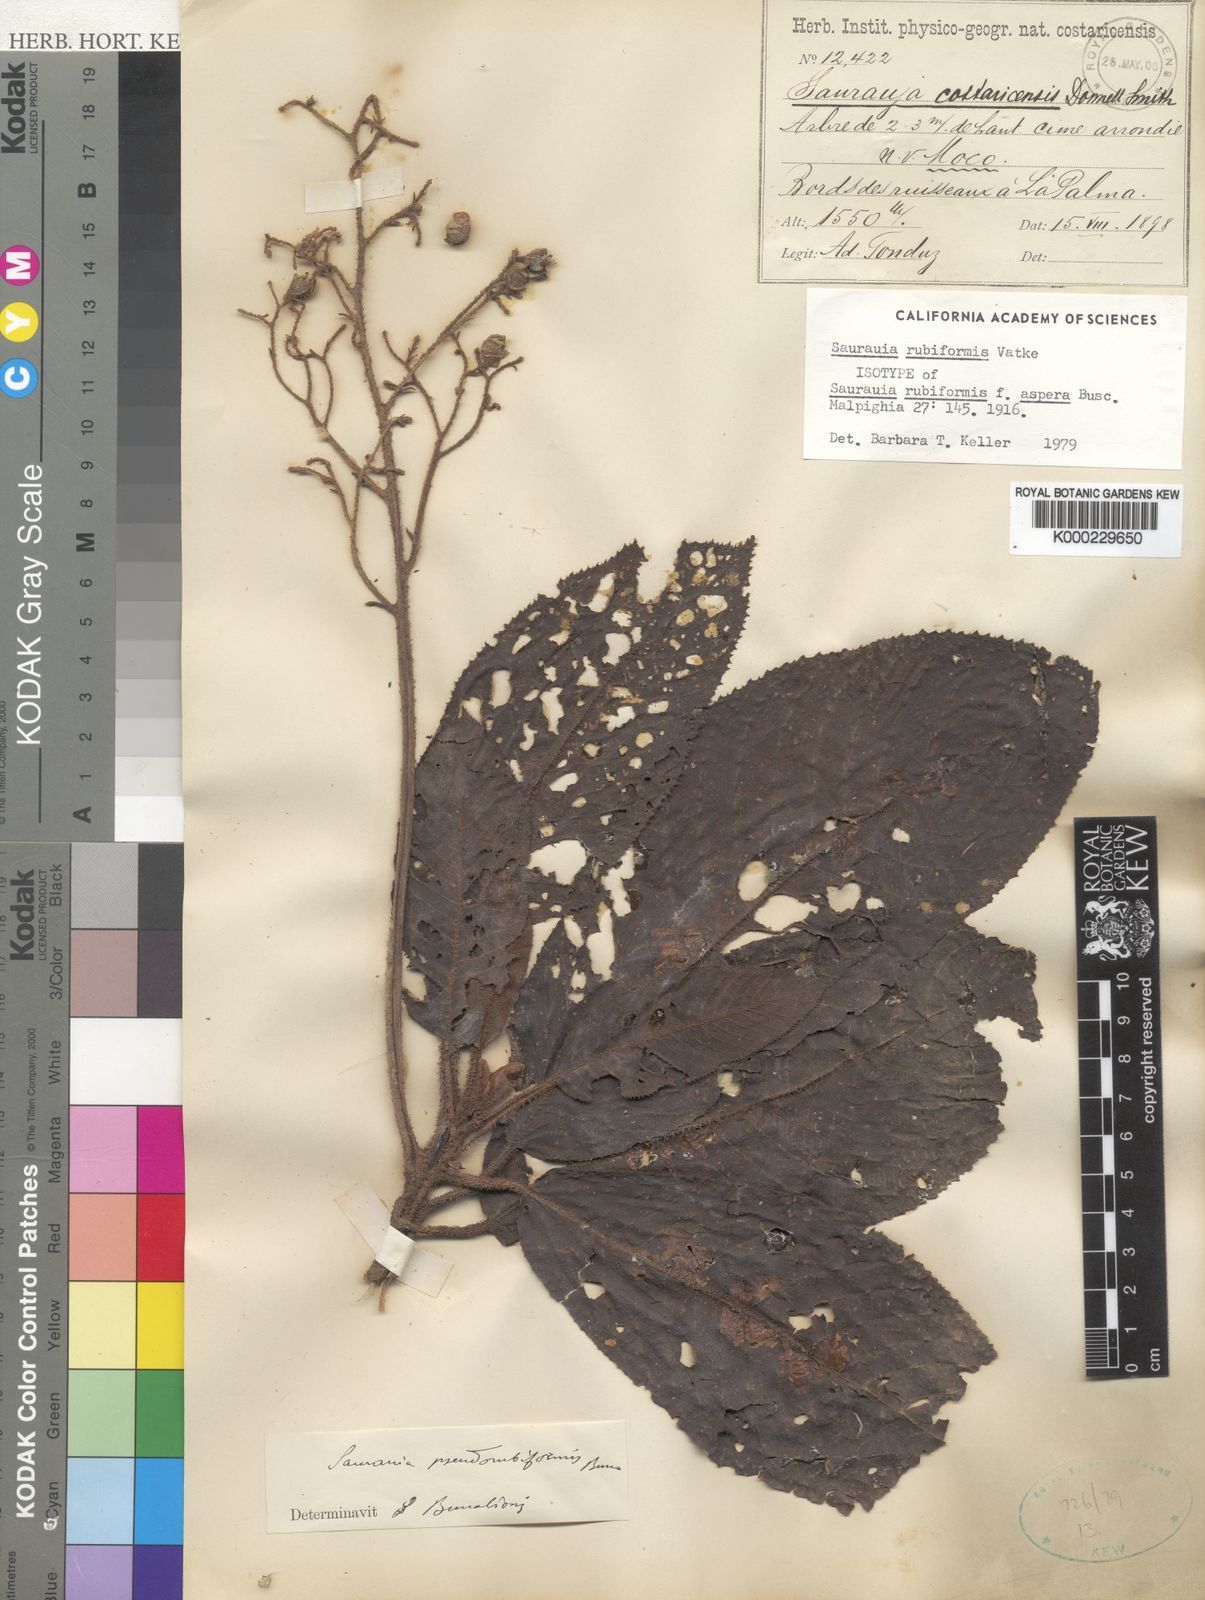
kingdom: Plantae
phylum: Tracheophyta
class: Magnoliopsida
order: Ericales
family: Actinidiaceae
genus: Saurauia
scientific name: Saurauia rubiformis
